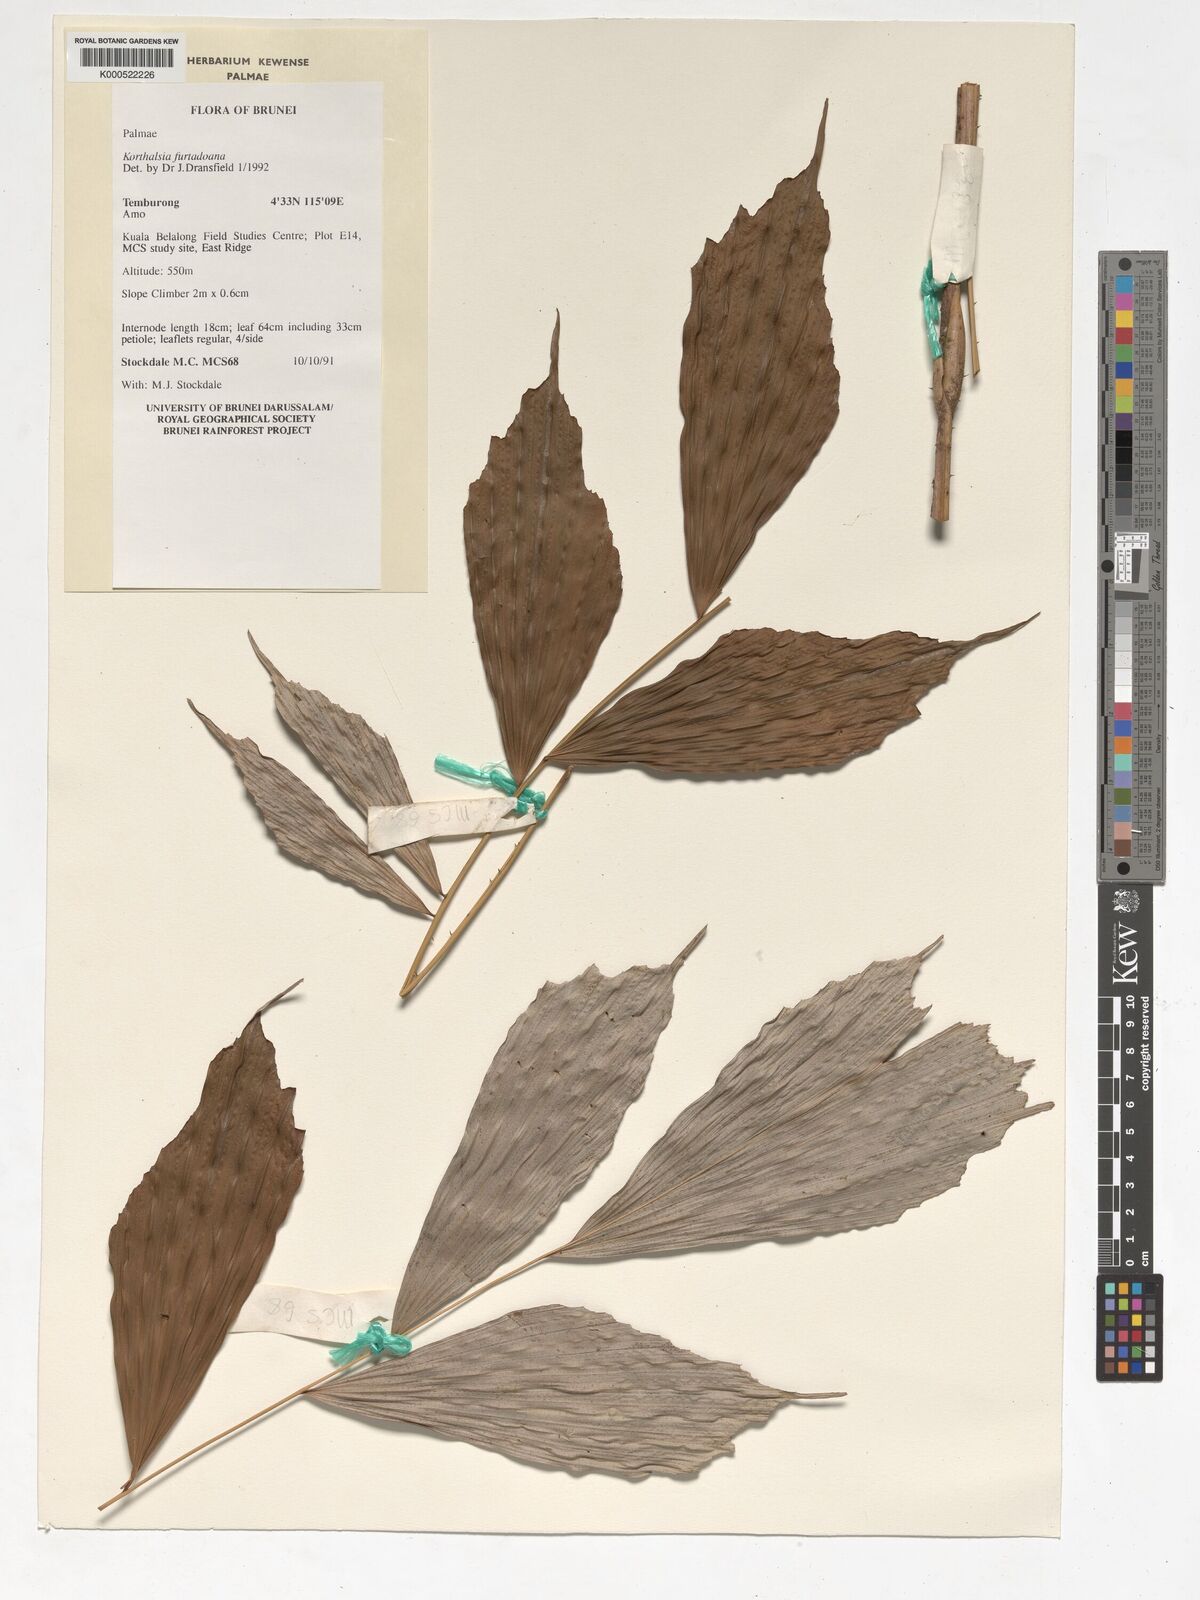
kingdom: Plantae
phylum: Tracheophyta
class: Liliopsida
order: Arecales
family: Arecaceae
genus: Korthalsia
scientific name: Korthalsia furtadoana
